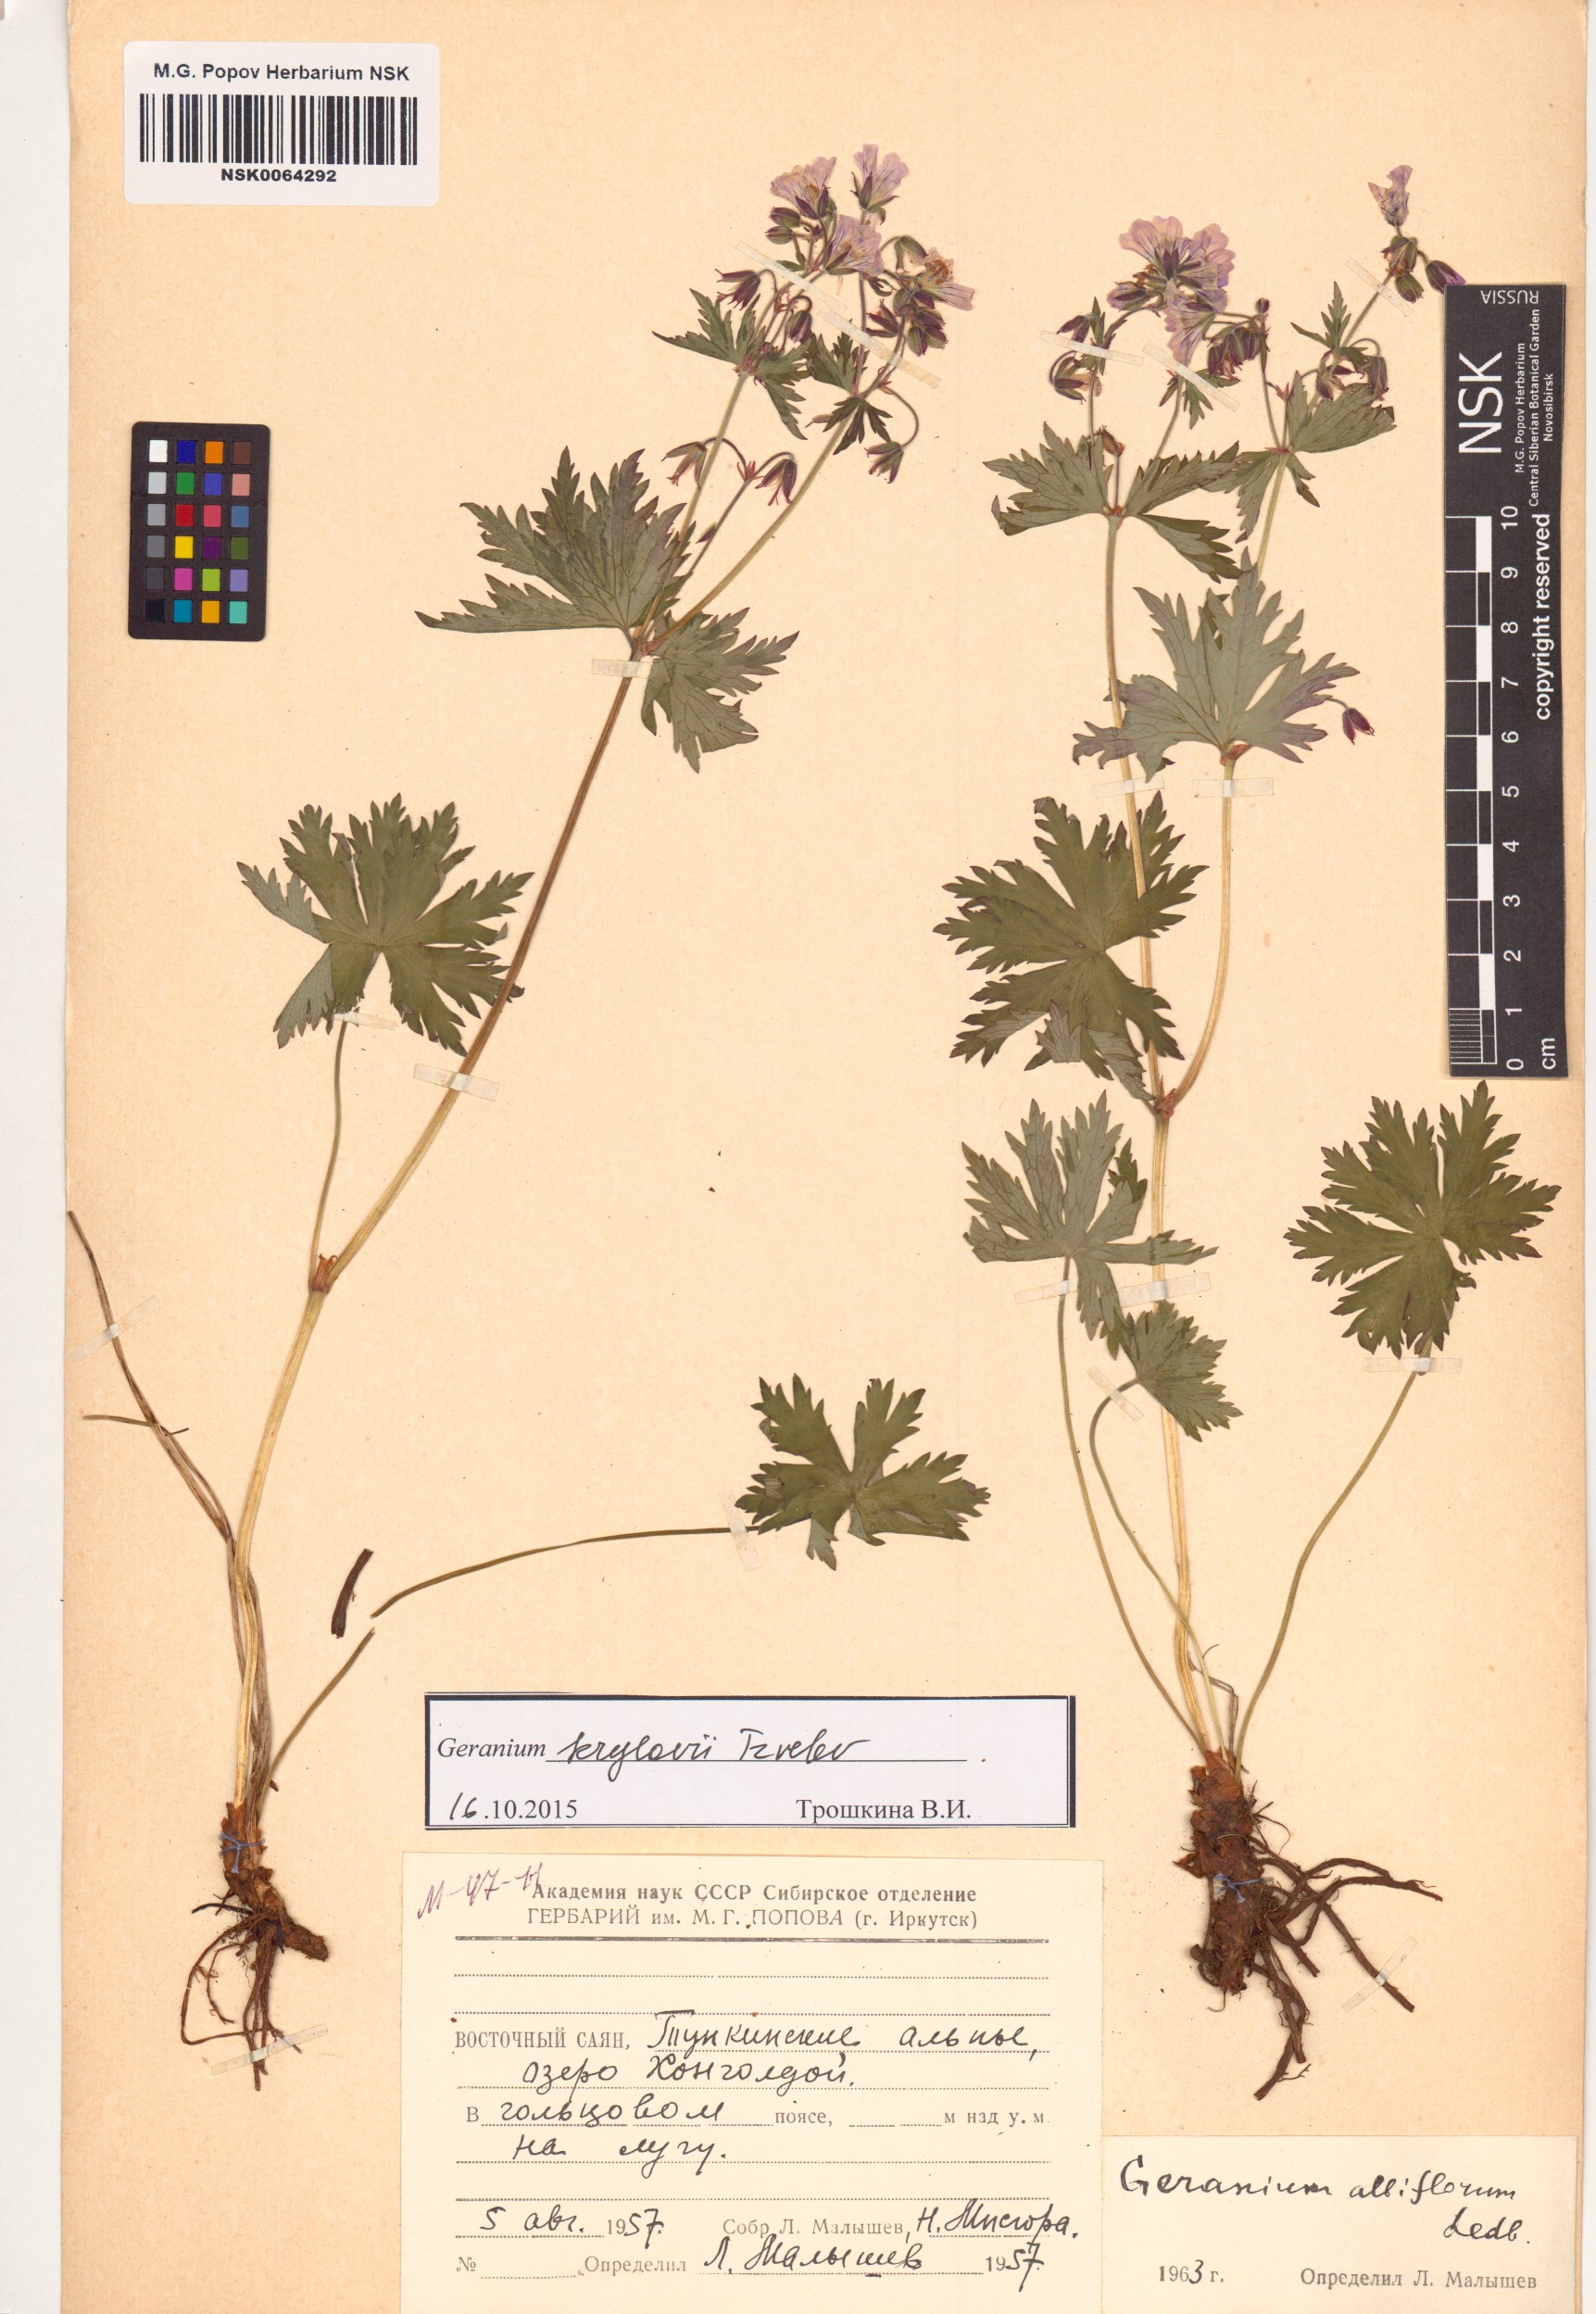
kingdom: Plantae
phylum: Tracheophyta
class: Magnoliopsida
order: Geraniales
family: Geraniaceae
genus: Geranium
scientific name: Geranium sylvaticum
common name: Wood crane's-bill
